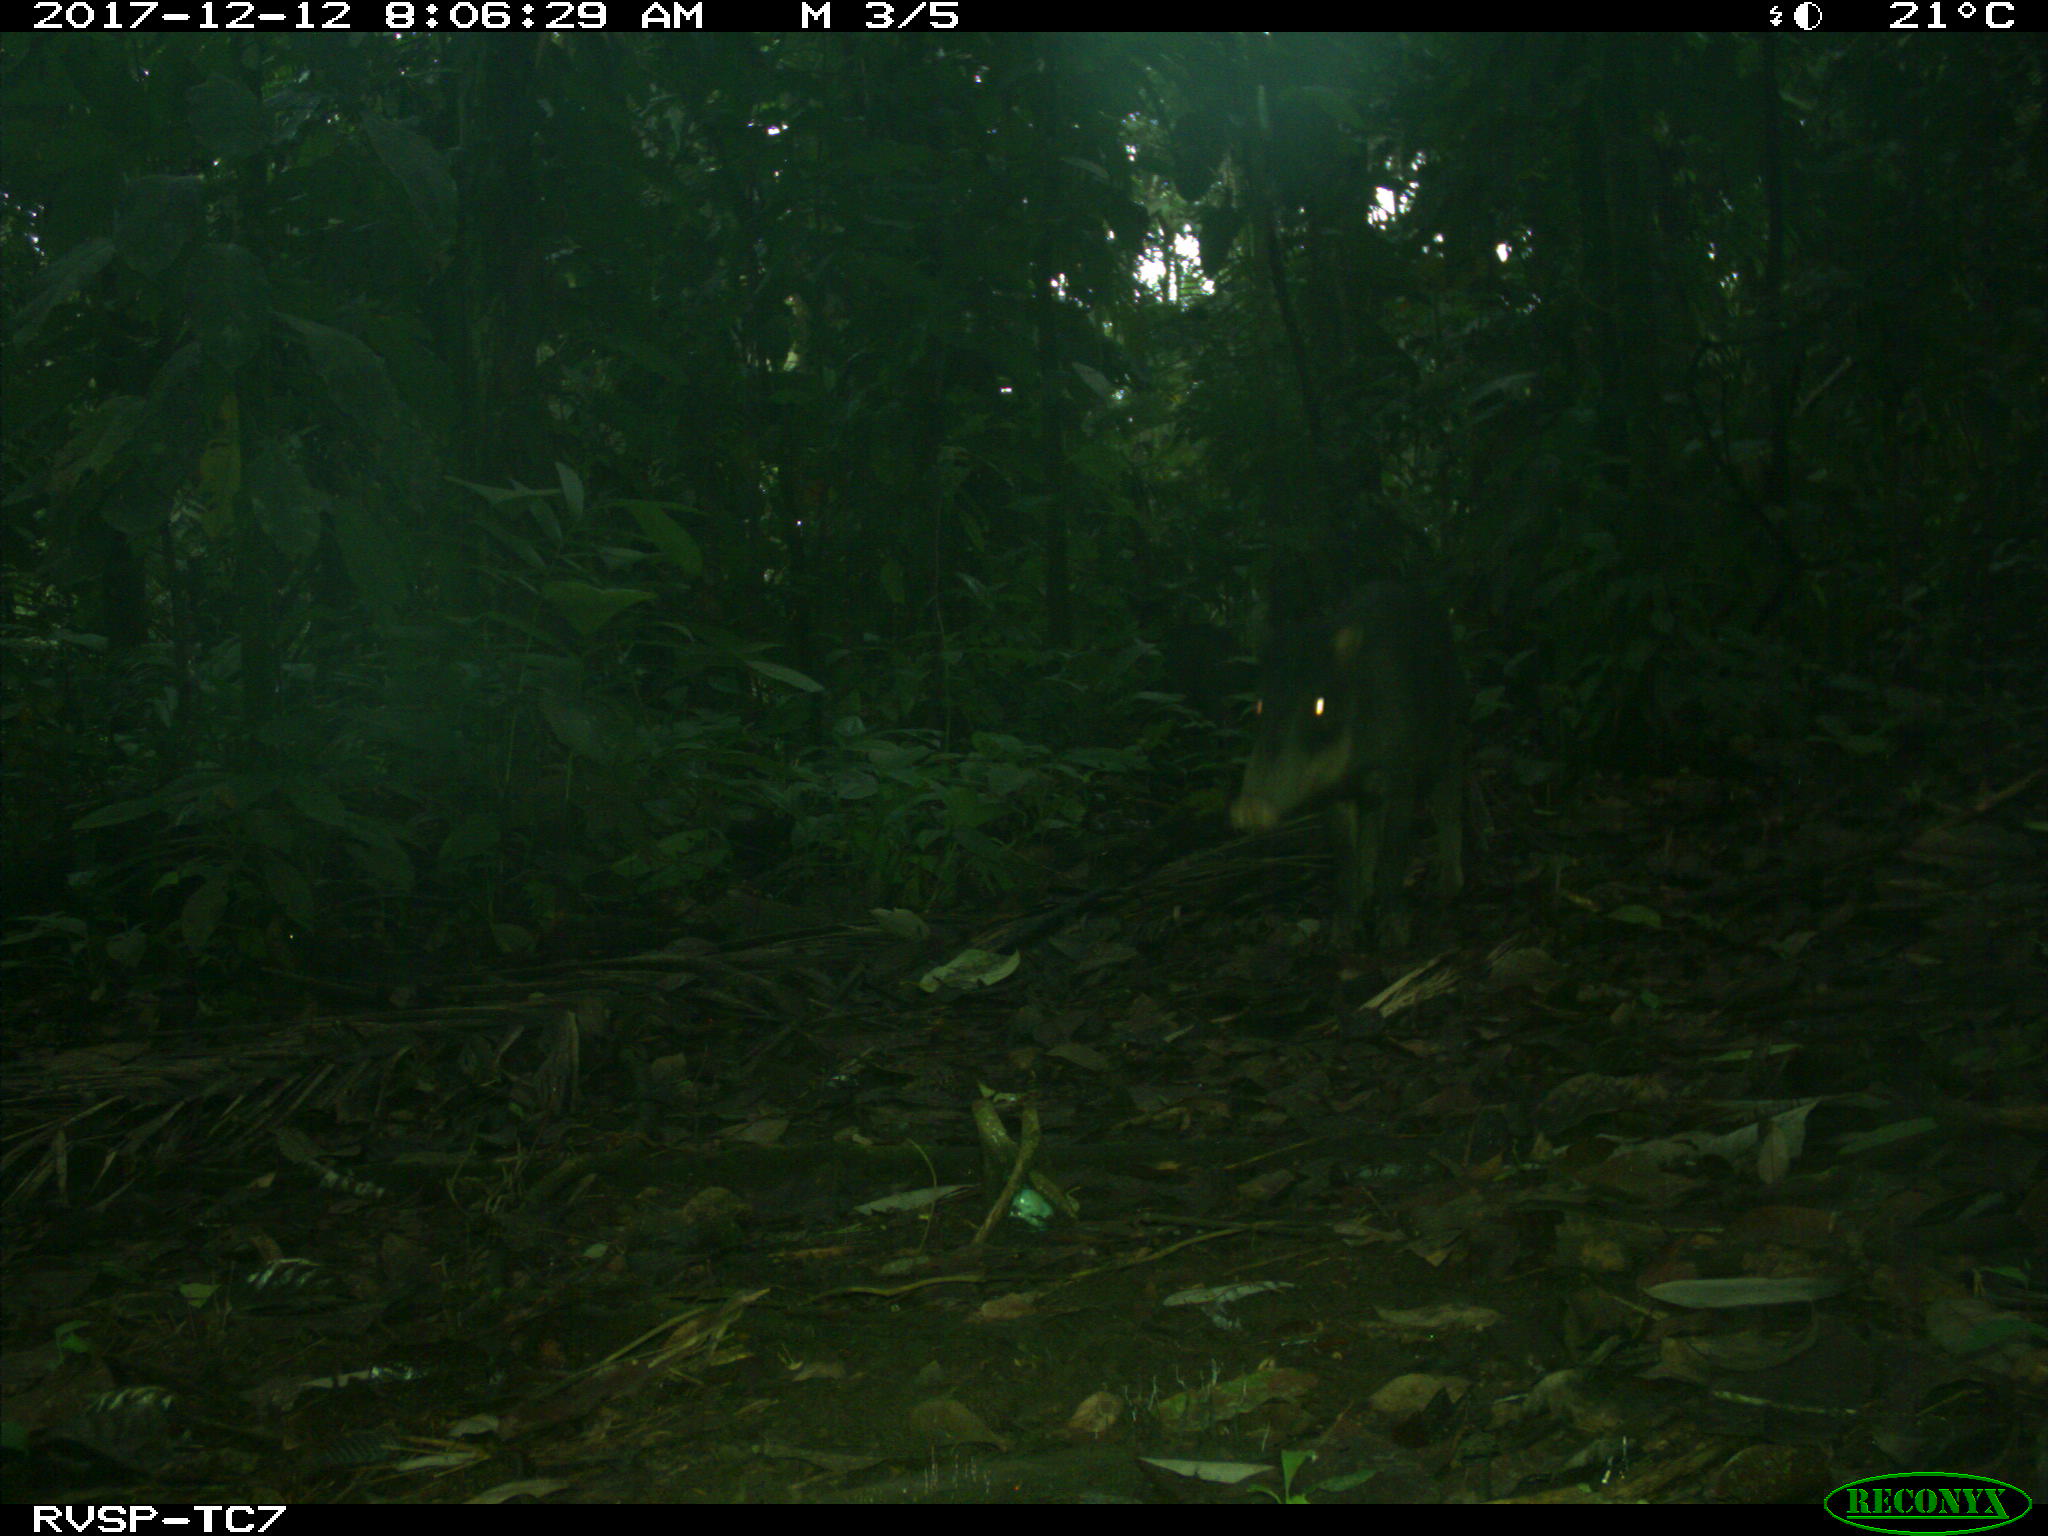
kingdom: Animalia
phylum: Chordata
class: Mammalia
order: Artiodactyla
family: Tayassuidae
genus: Tayassu
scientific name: Tayassu pecari
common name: White-lipped peccary
